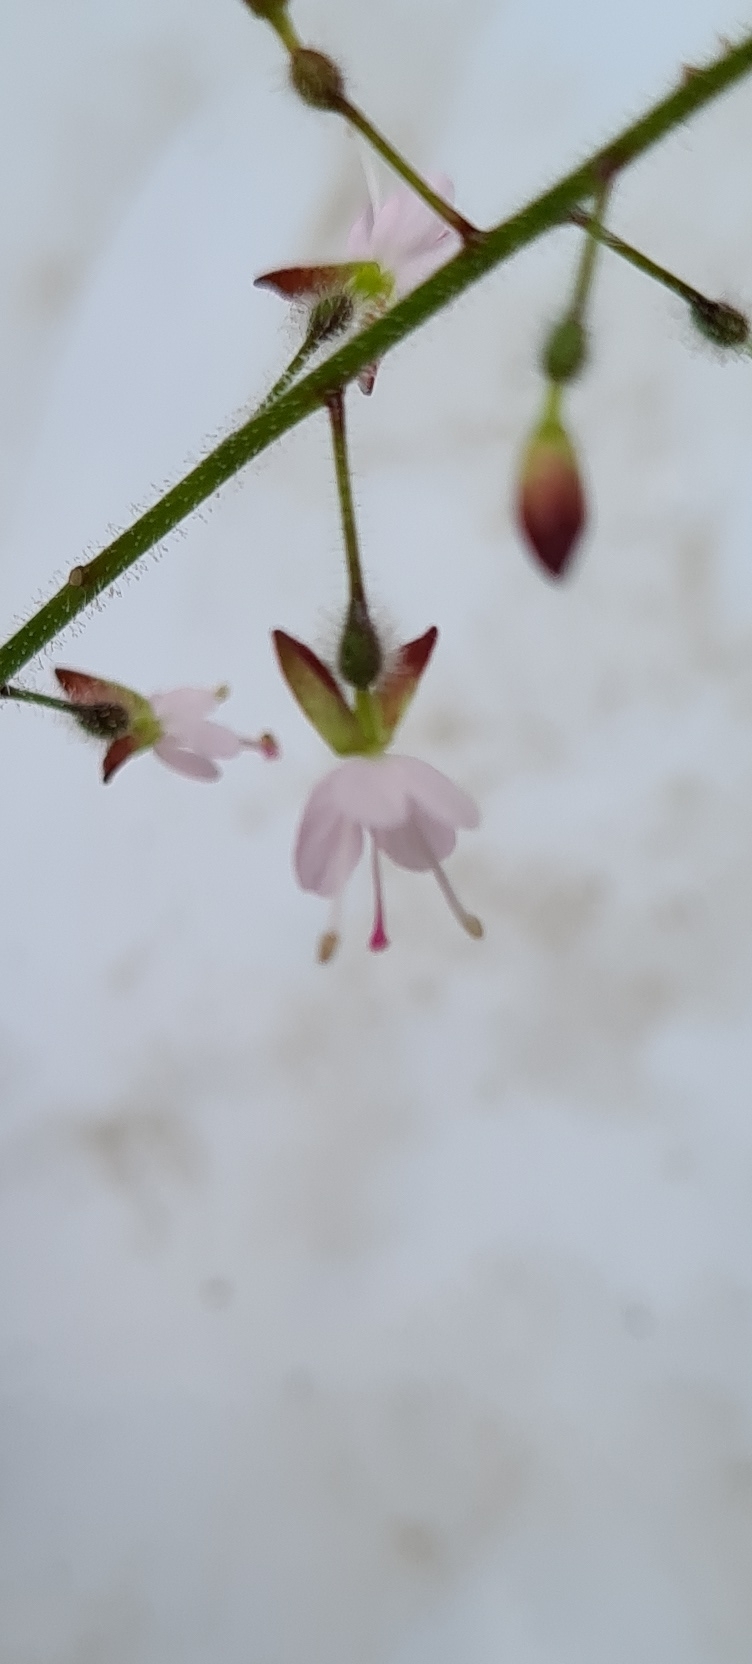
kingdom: Plantae
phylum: Tracheophyta
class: Magnoliopsida
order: Myrtales
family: Onagraceae
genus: Circaea
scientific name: Circaea lutetiana
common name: Dunet steffensurt
